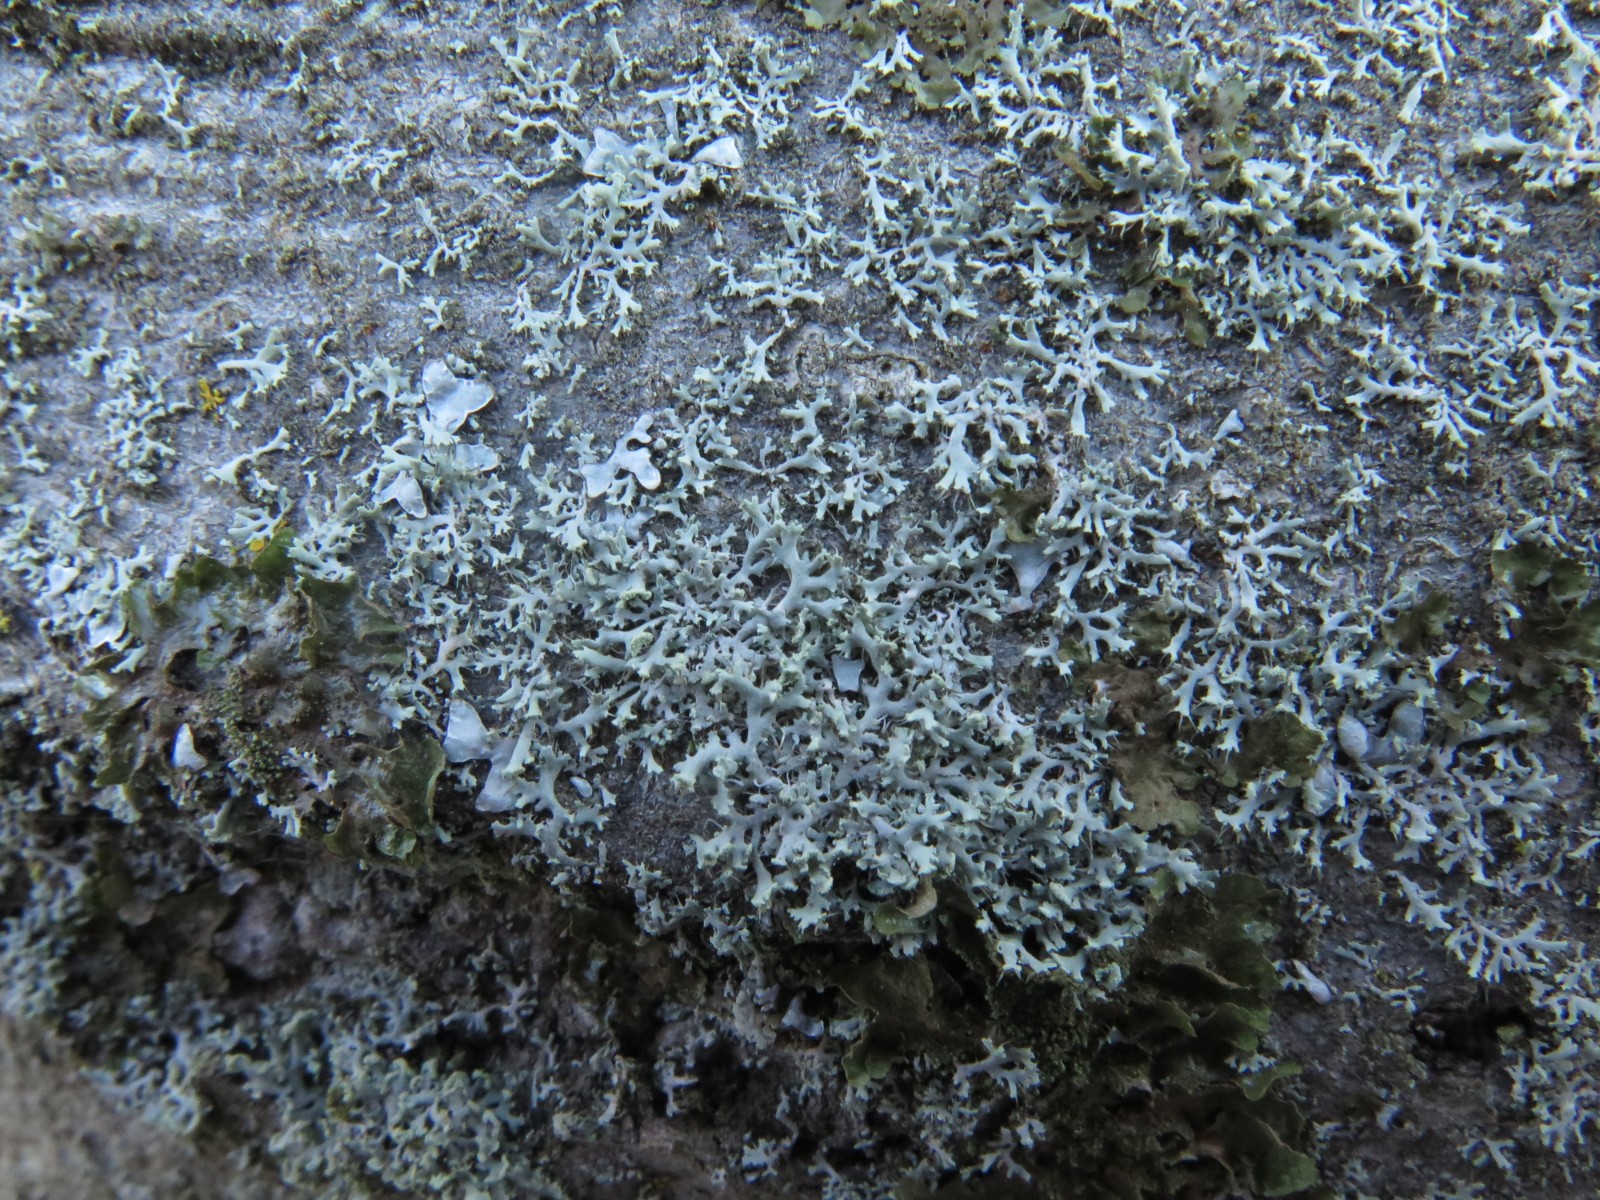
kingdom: Fungi
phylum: Ascomycota
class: Lecanoromycetes
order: Caliciales
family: Physciaceae
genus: Physcia
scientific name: Physcia tenella
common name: spæd rosetlav
